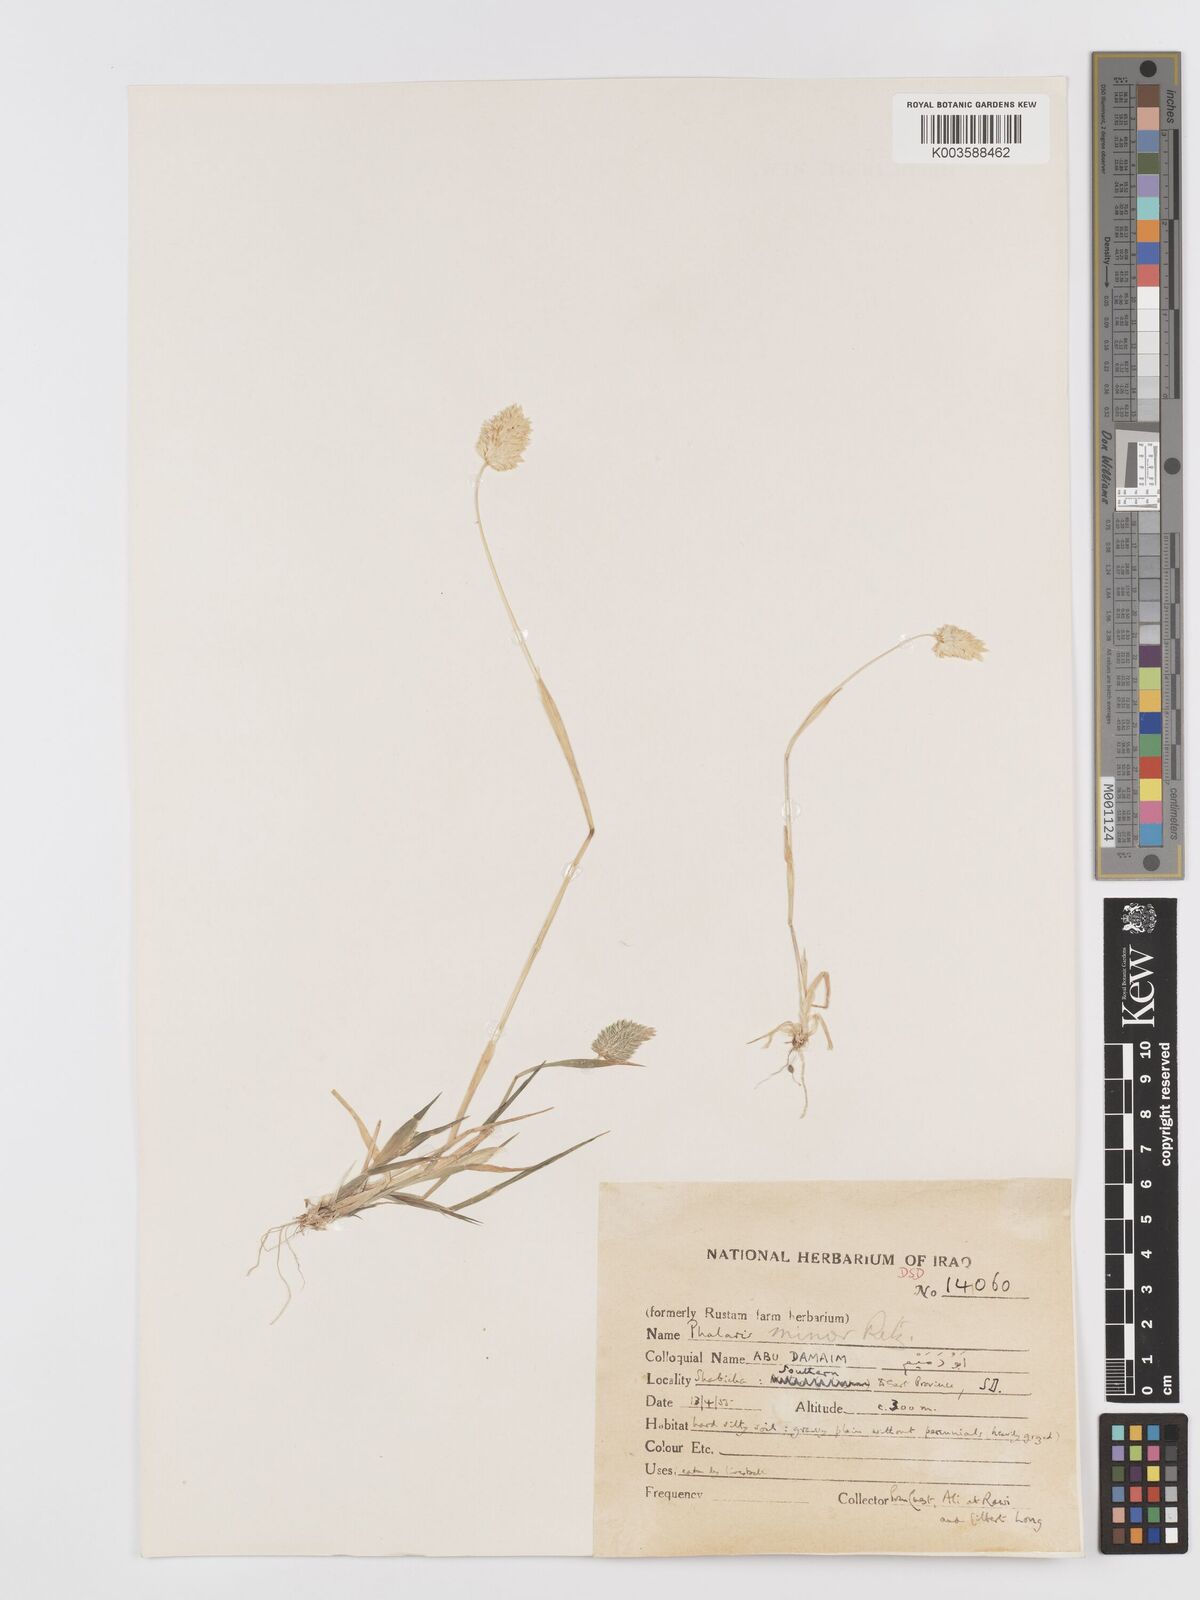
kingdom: Plantae
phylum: Tracheophyta
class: Liliopsida
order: Poales
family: Poaceae
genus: Phalaris
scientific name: Phalaris minor
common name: Littleseed canarygrass
